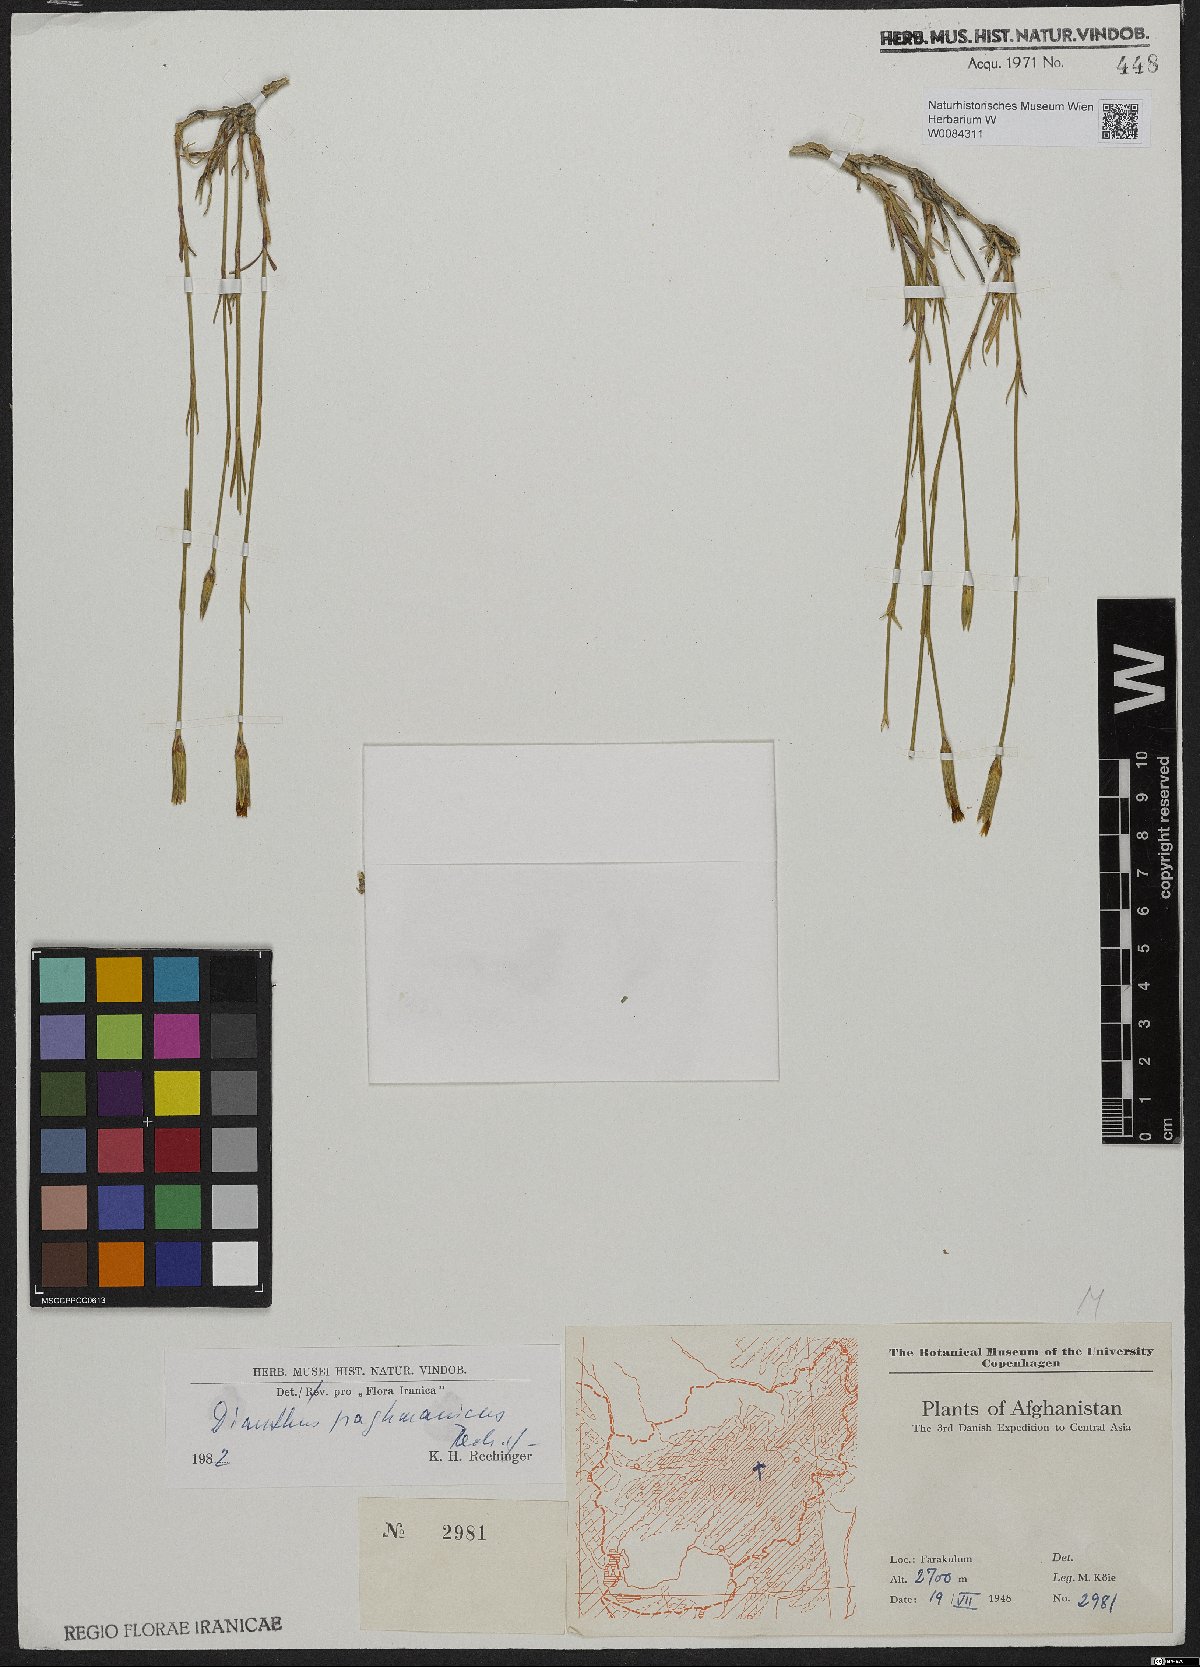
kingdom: Plantae
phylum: Tracheophyta
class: Magnoliopsida
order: Caryophyllales
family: Caryophyllaceae
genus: Dianthus
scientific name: Dianthus paghmanicus
